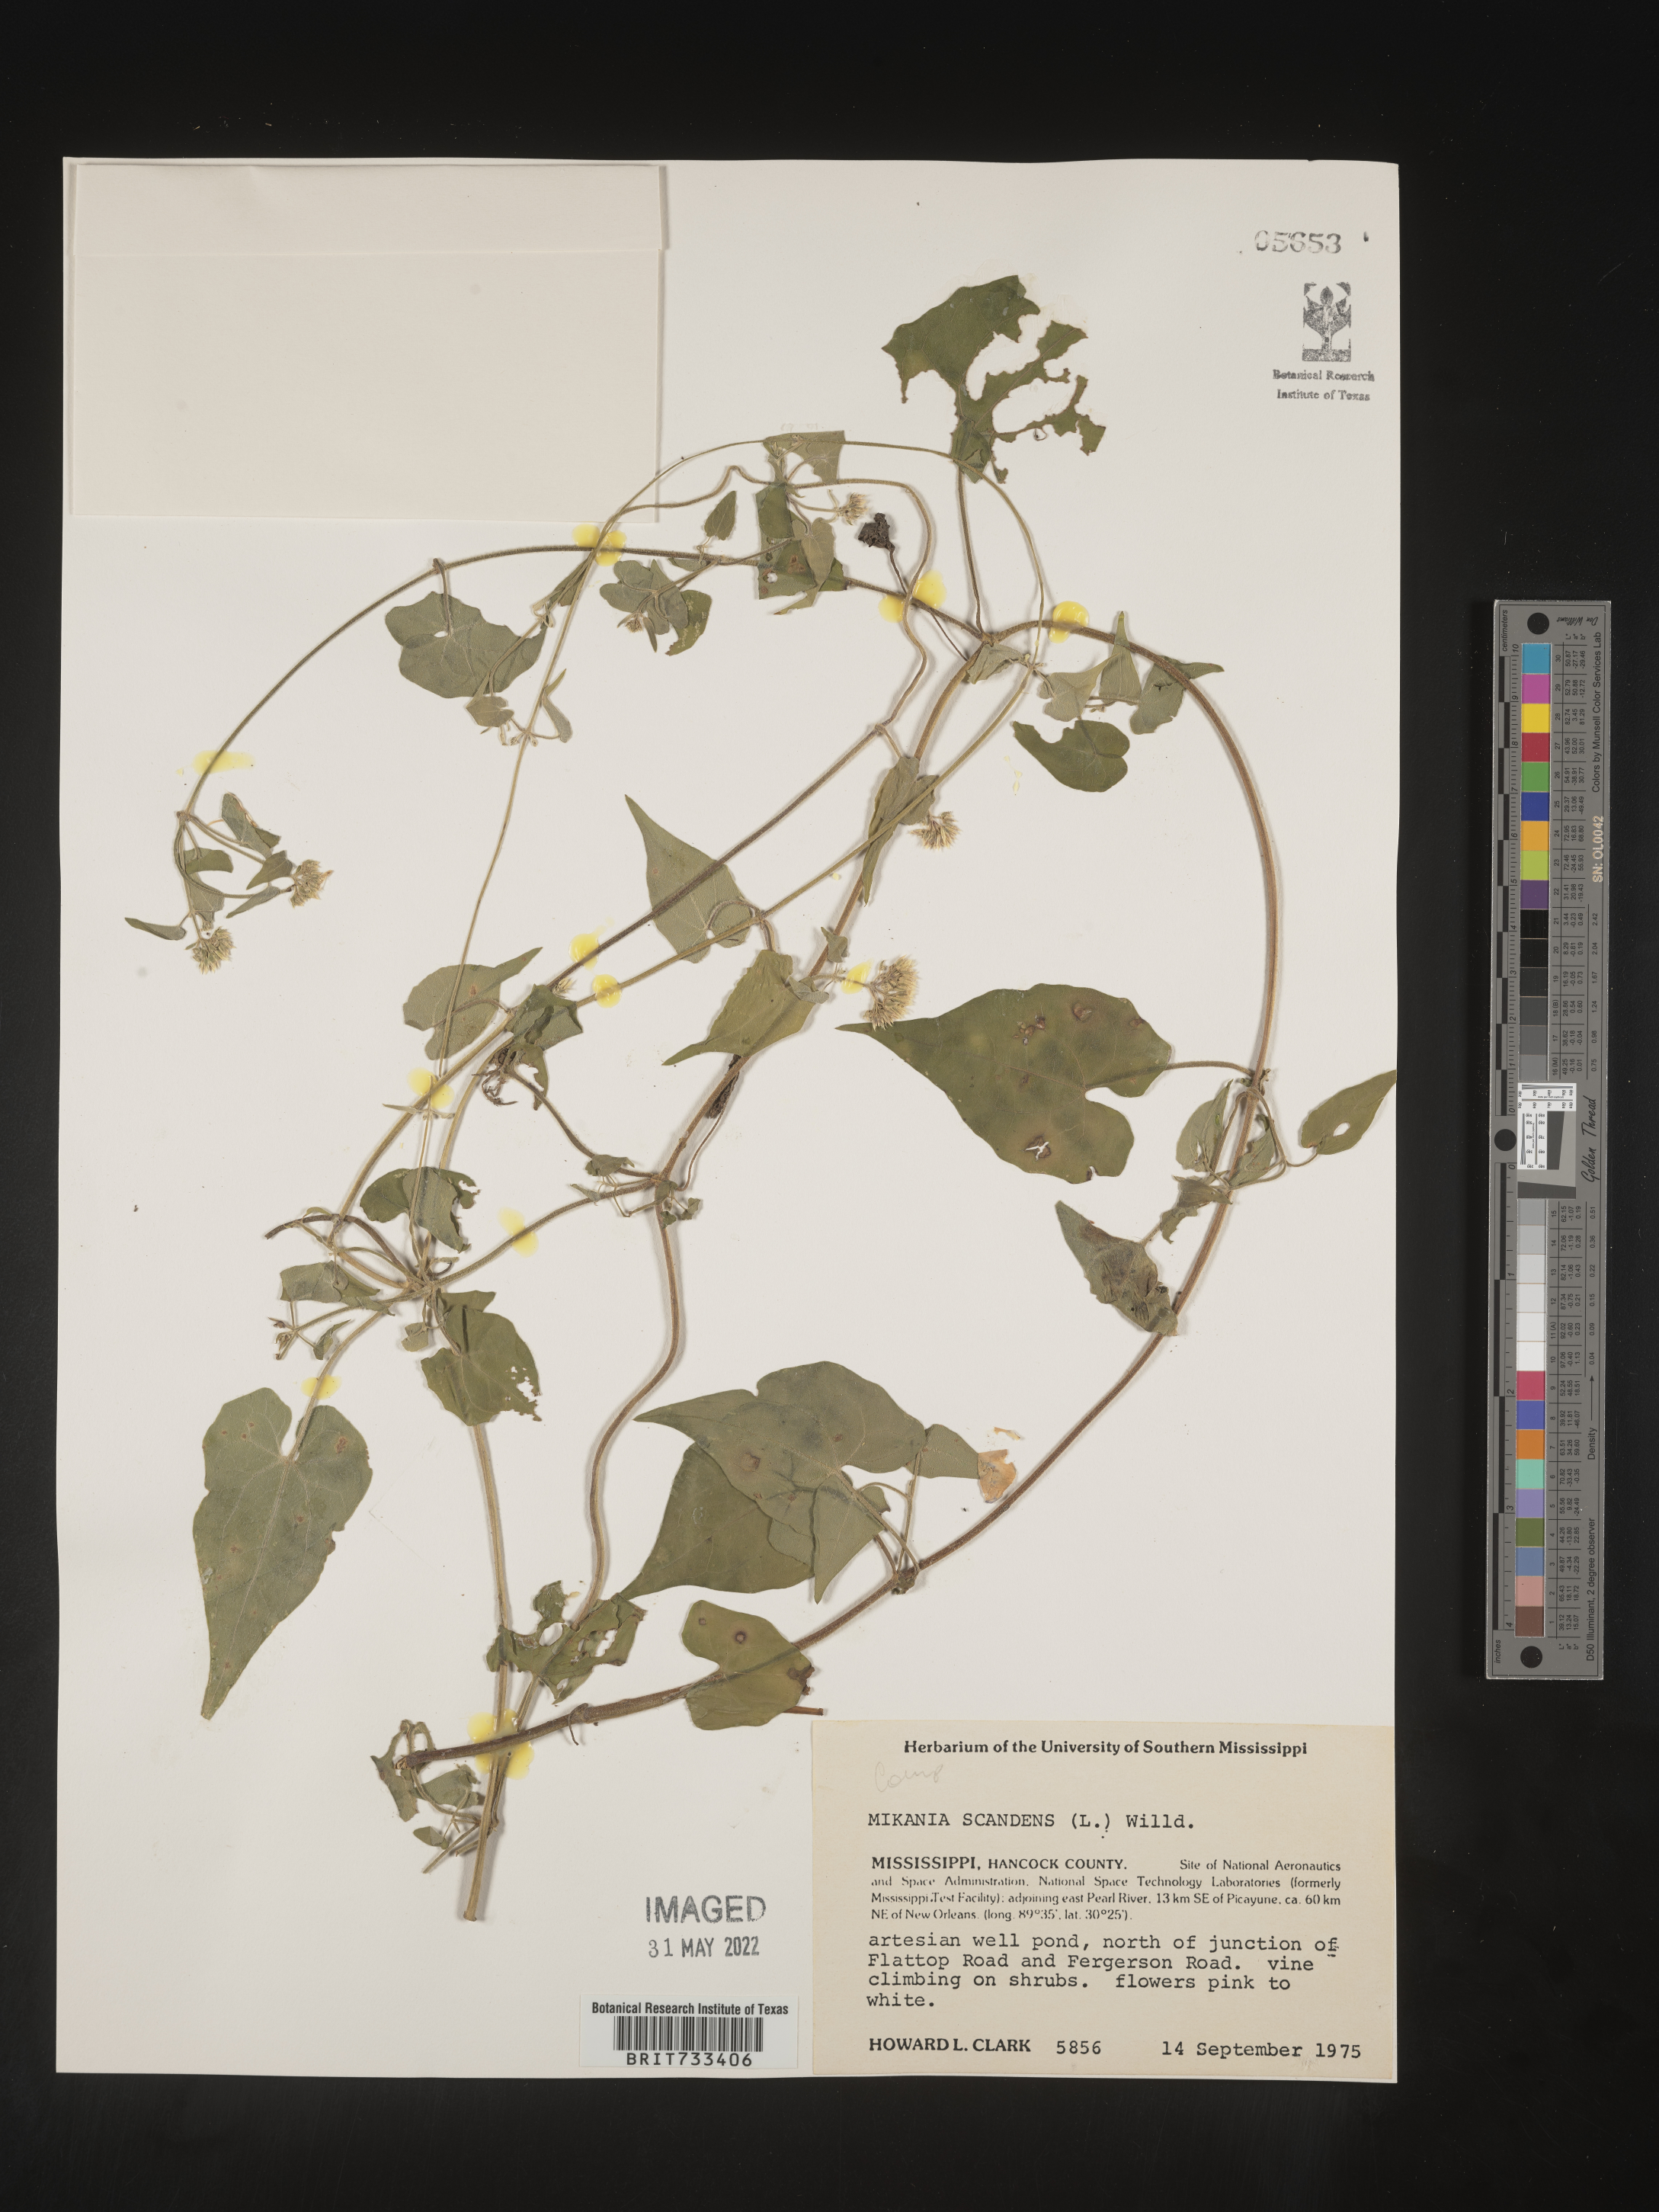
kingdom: Plantae
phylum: Tracheophyta
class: Magnoliopsida
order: Asterales
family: Asteraceae
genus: Mikania
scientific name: Mikania scandens
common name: Climbing hempvine
